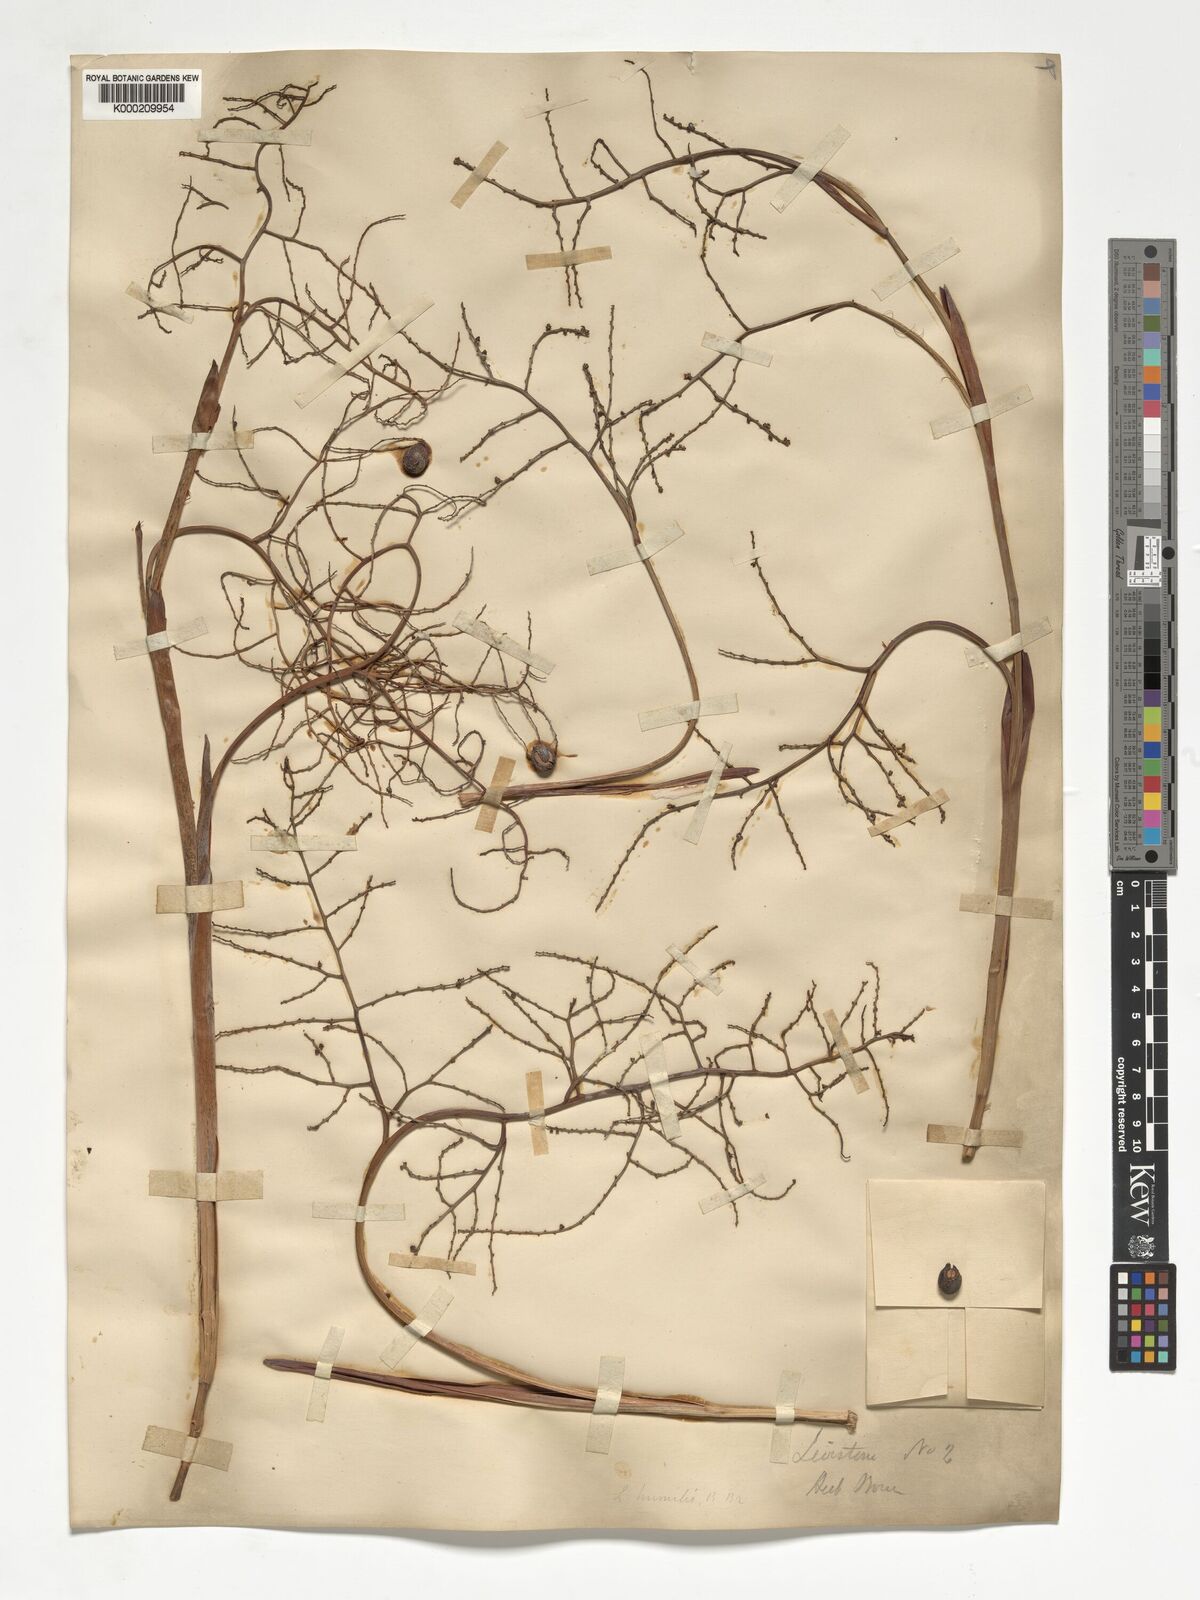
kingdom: Plantae
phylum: Tracheophyta
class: Liliopsida
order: Arecales
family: Arecaceae
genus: Livistona
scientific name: Livistona humilis
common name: Cabbage palm
